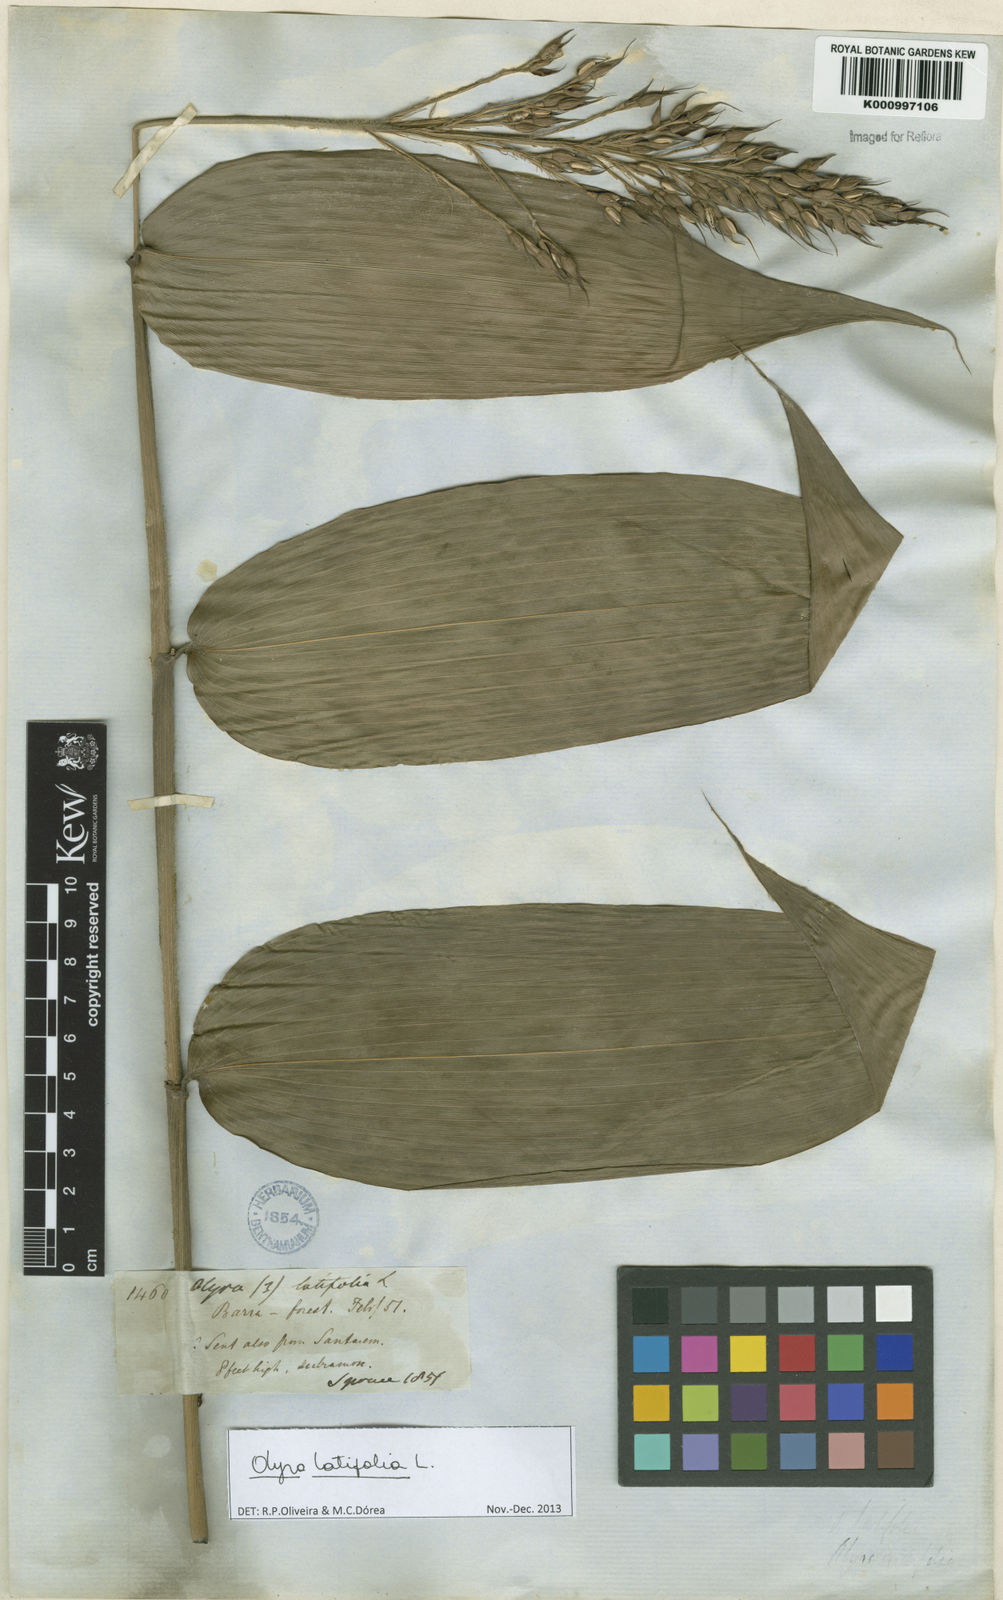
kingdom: Plantae
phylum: Tracheophyta
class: Liliopsida
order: Poales
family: Poaceae
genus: Olyra
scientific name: Olyra latifolia
